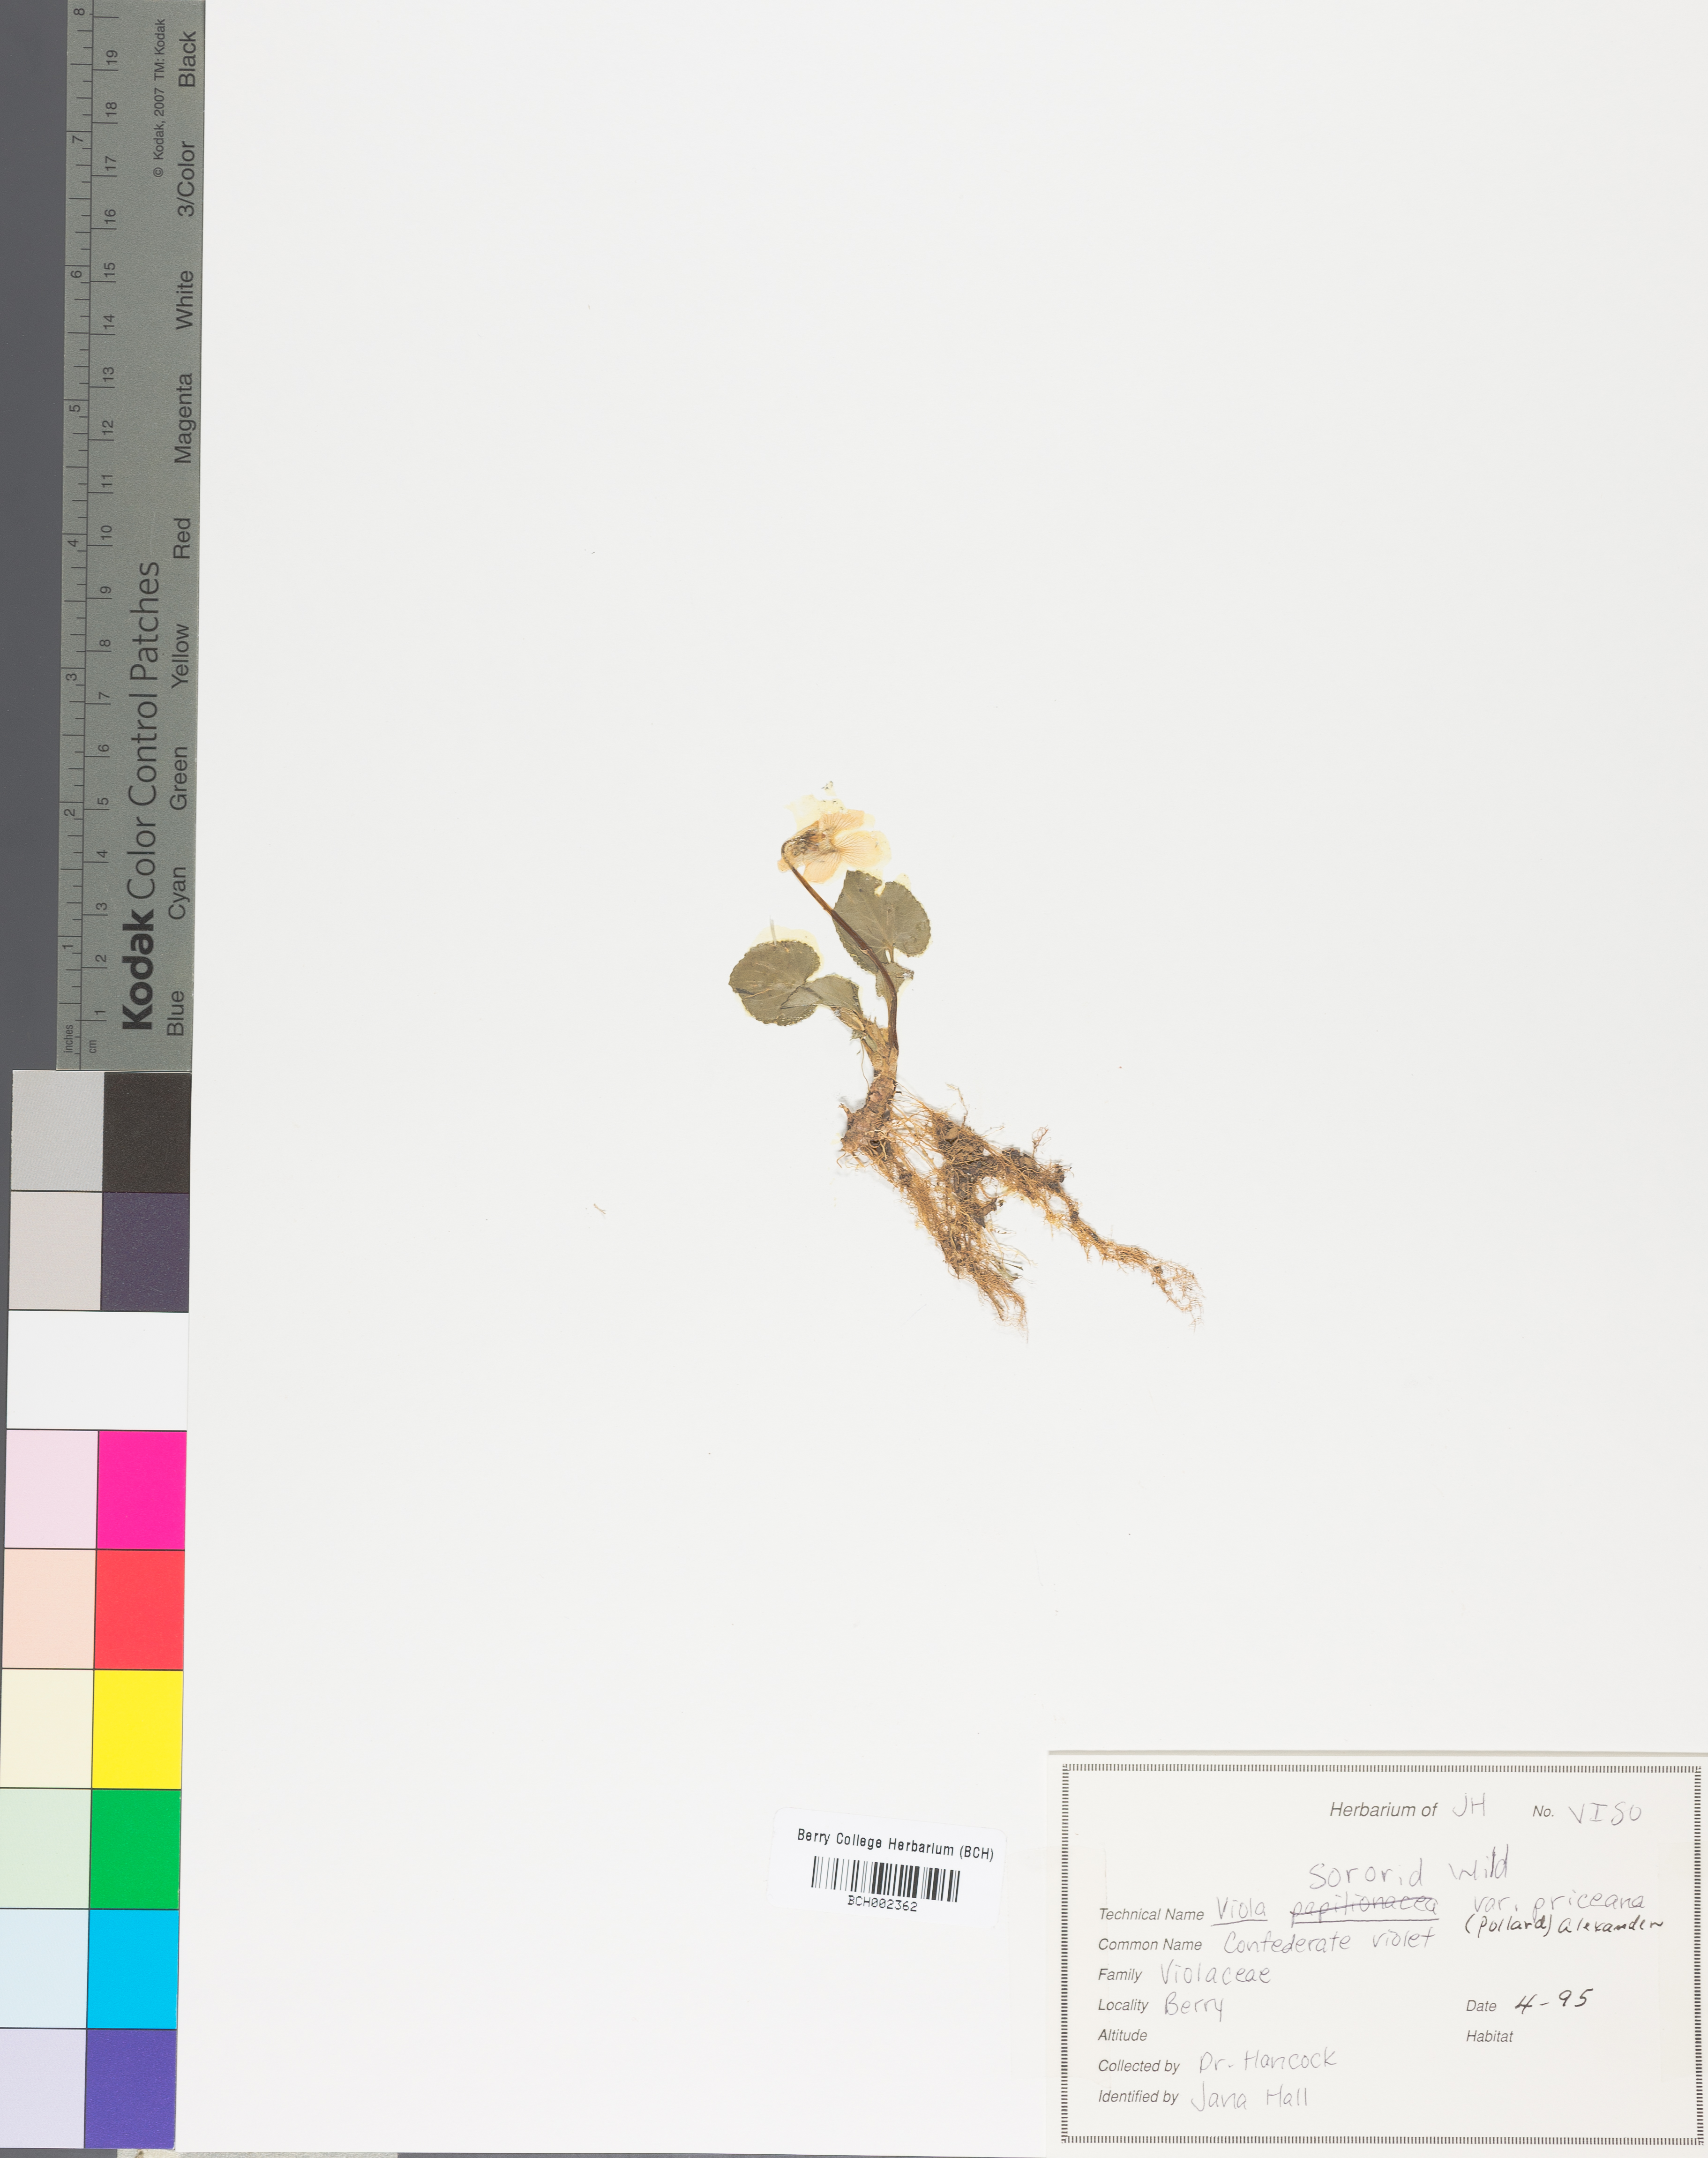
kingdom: Plantae
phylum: Tracheophyta
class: Magnoliopsida
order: Malpighiales
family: Violaceae
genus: Viola
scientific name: Viola sororia
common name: Dooryard violet
